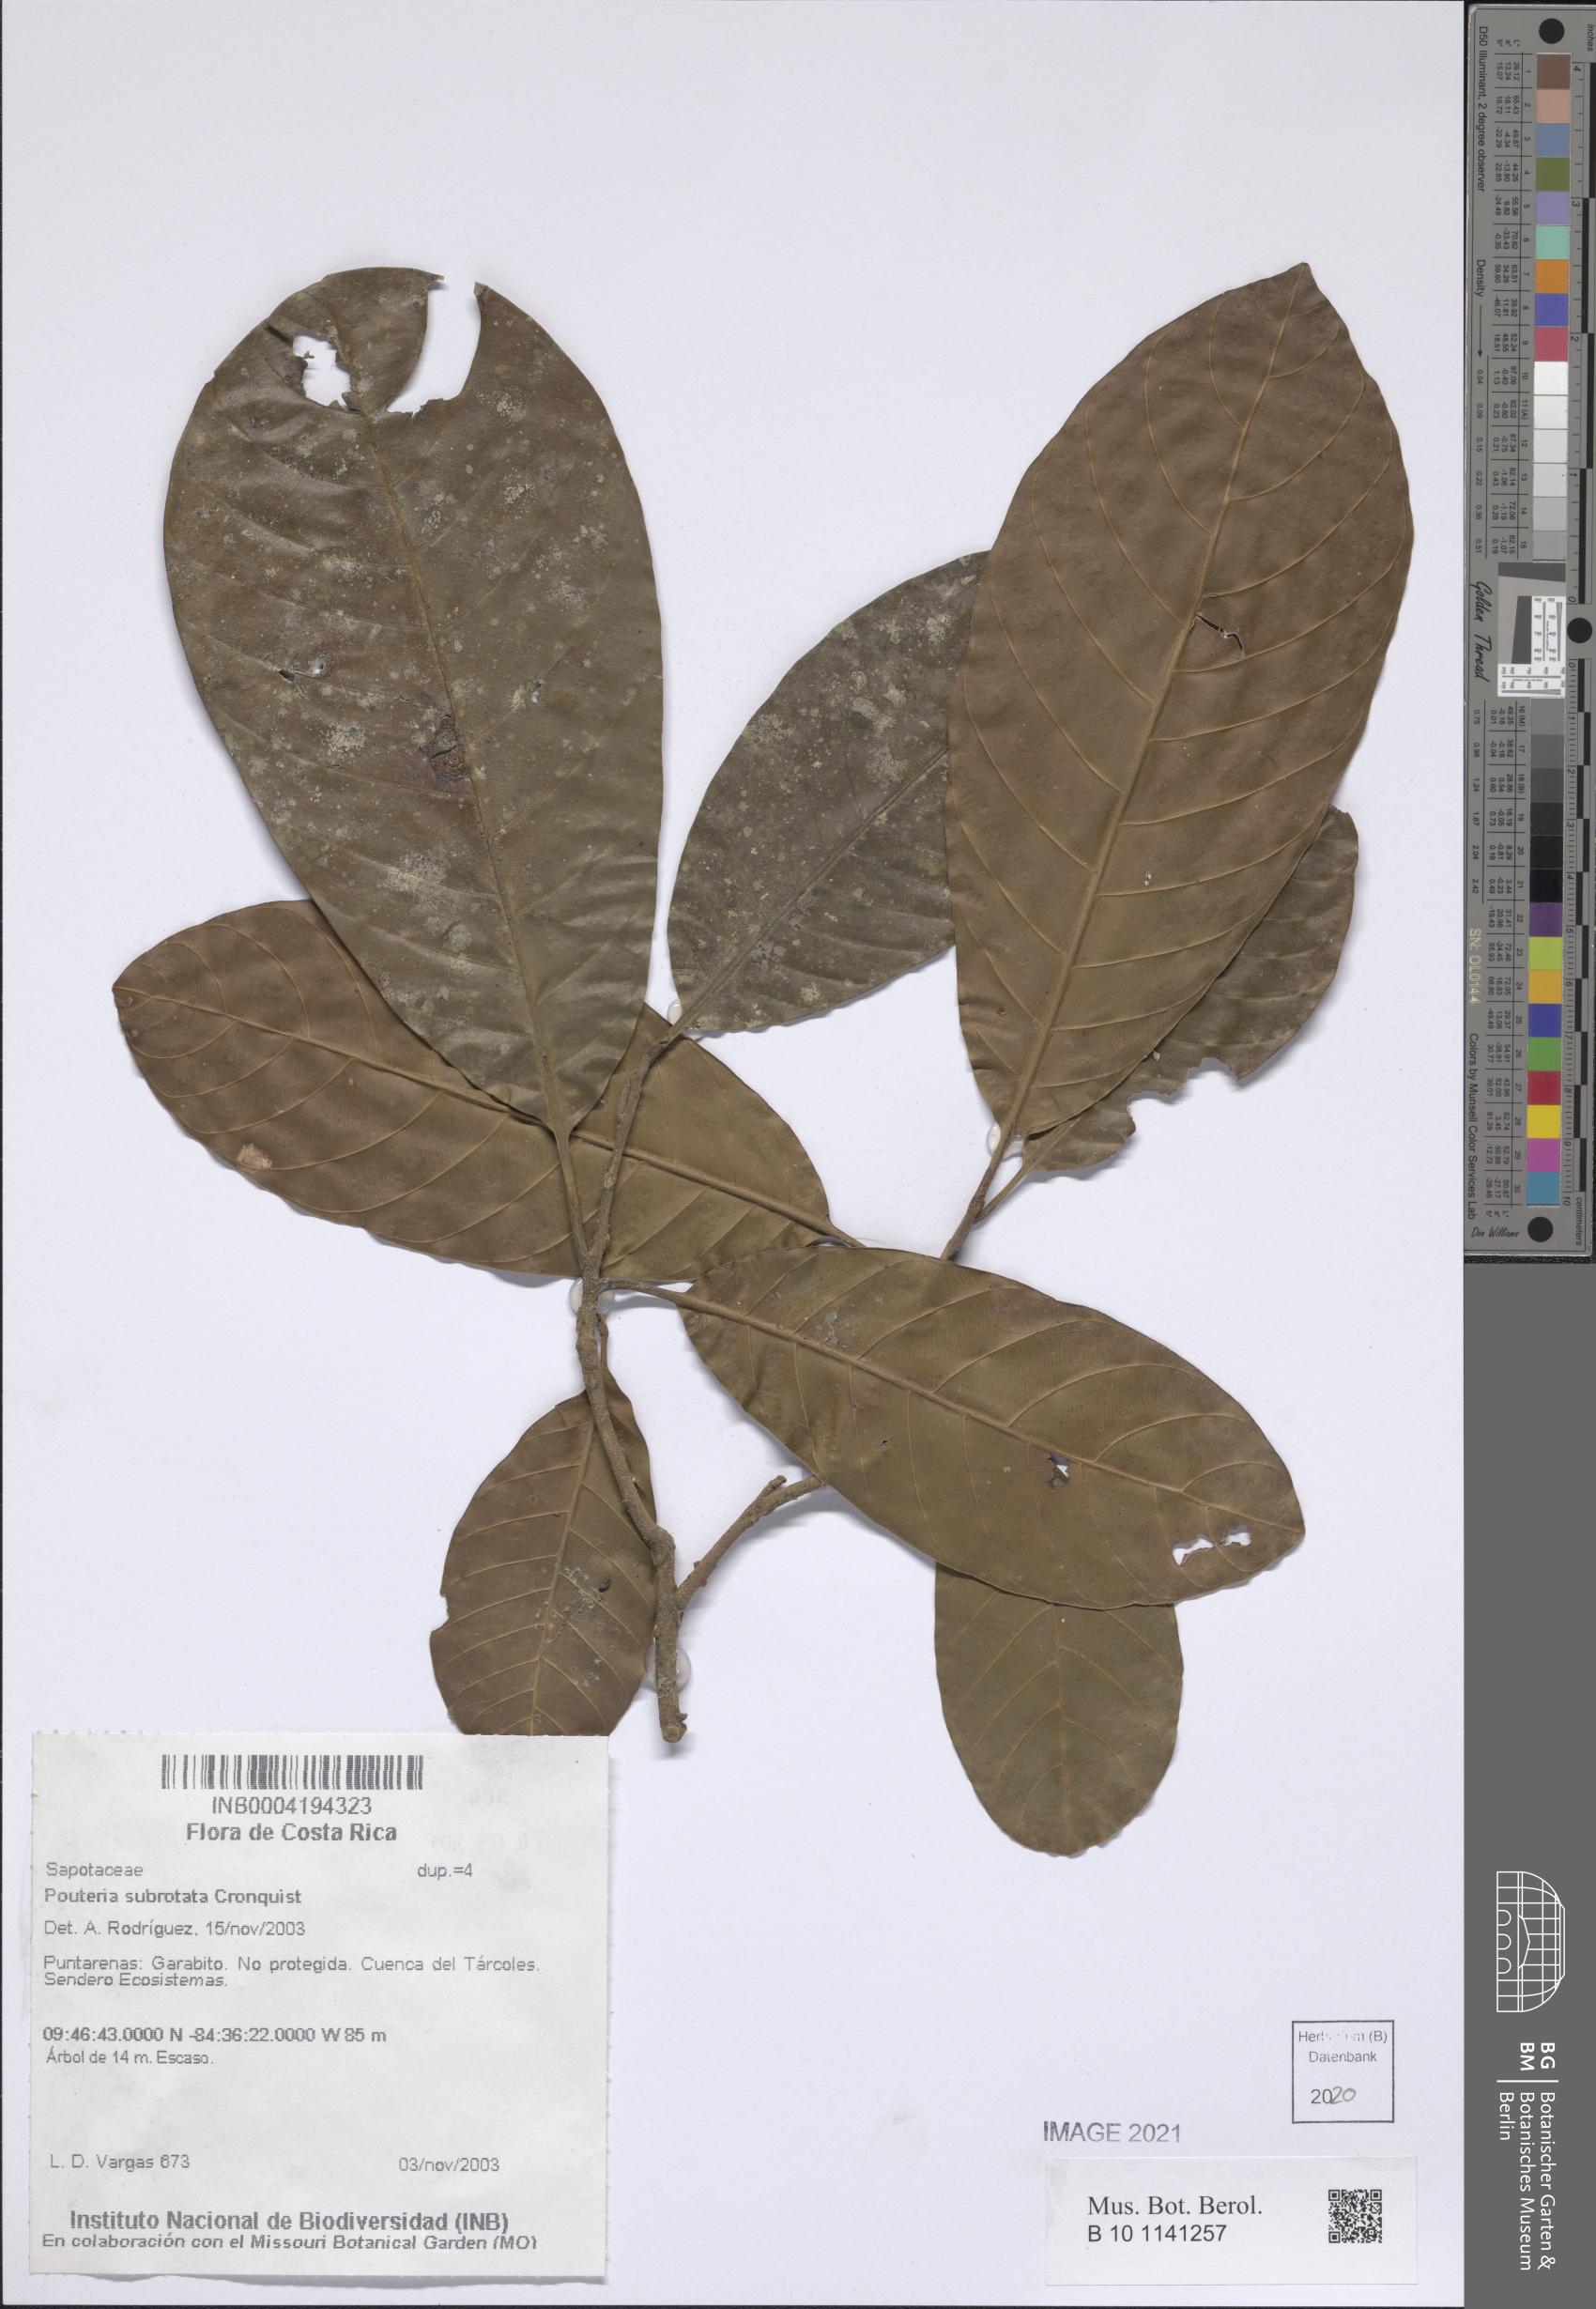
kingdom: Plantae
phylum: Tracheophyta
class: Magnoliopsida
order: Ericales
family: Sapotaceae
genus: Pouteria
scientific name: Pouteria subrotata
